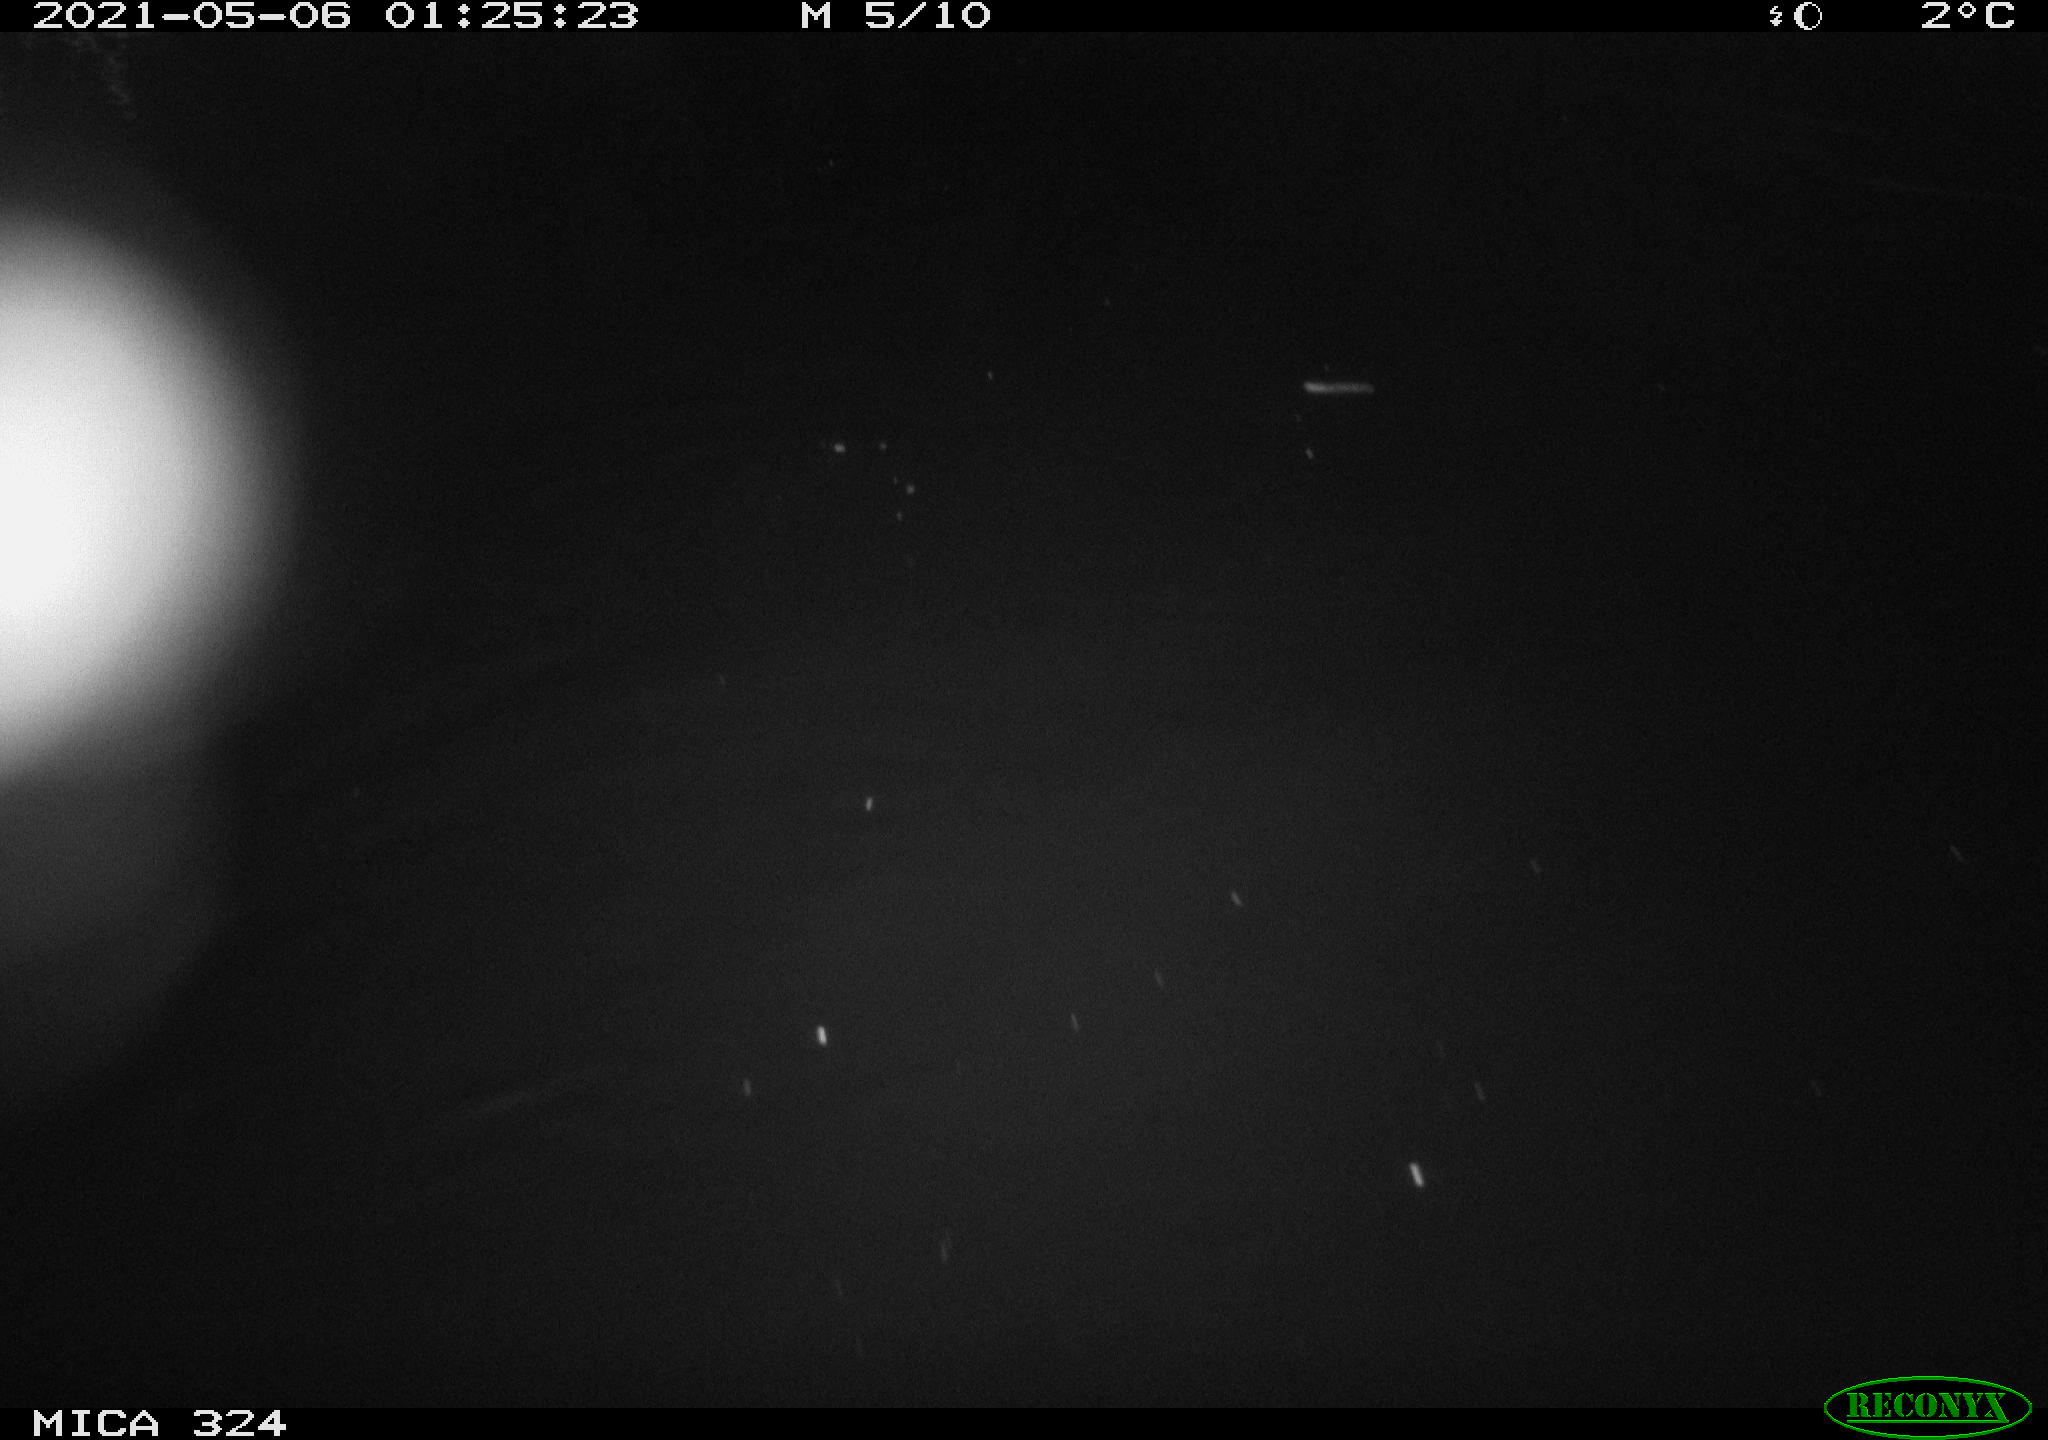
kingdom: Animalia
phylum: Chordata
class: Aves
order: Anseriformes
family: Anatidae
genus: Anas
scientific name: Anas platyrhynchos
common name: Mallard
